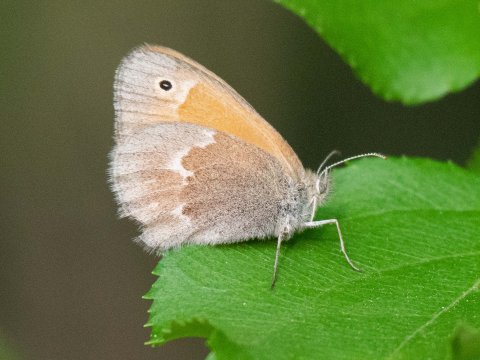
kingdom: Animalia
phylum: Arthropoda
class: Insecta
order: Lepidoptera
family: Nymphalidae
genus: Coenonympha
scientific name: Coenonympha california
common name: California Ringlet
